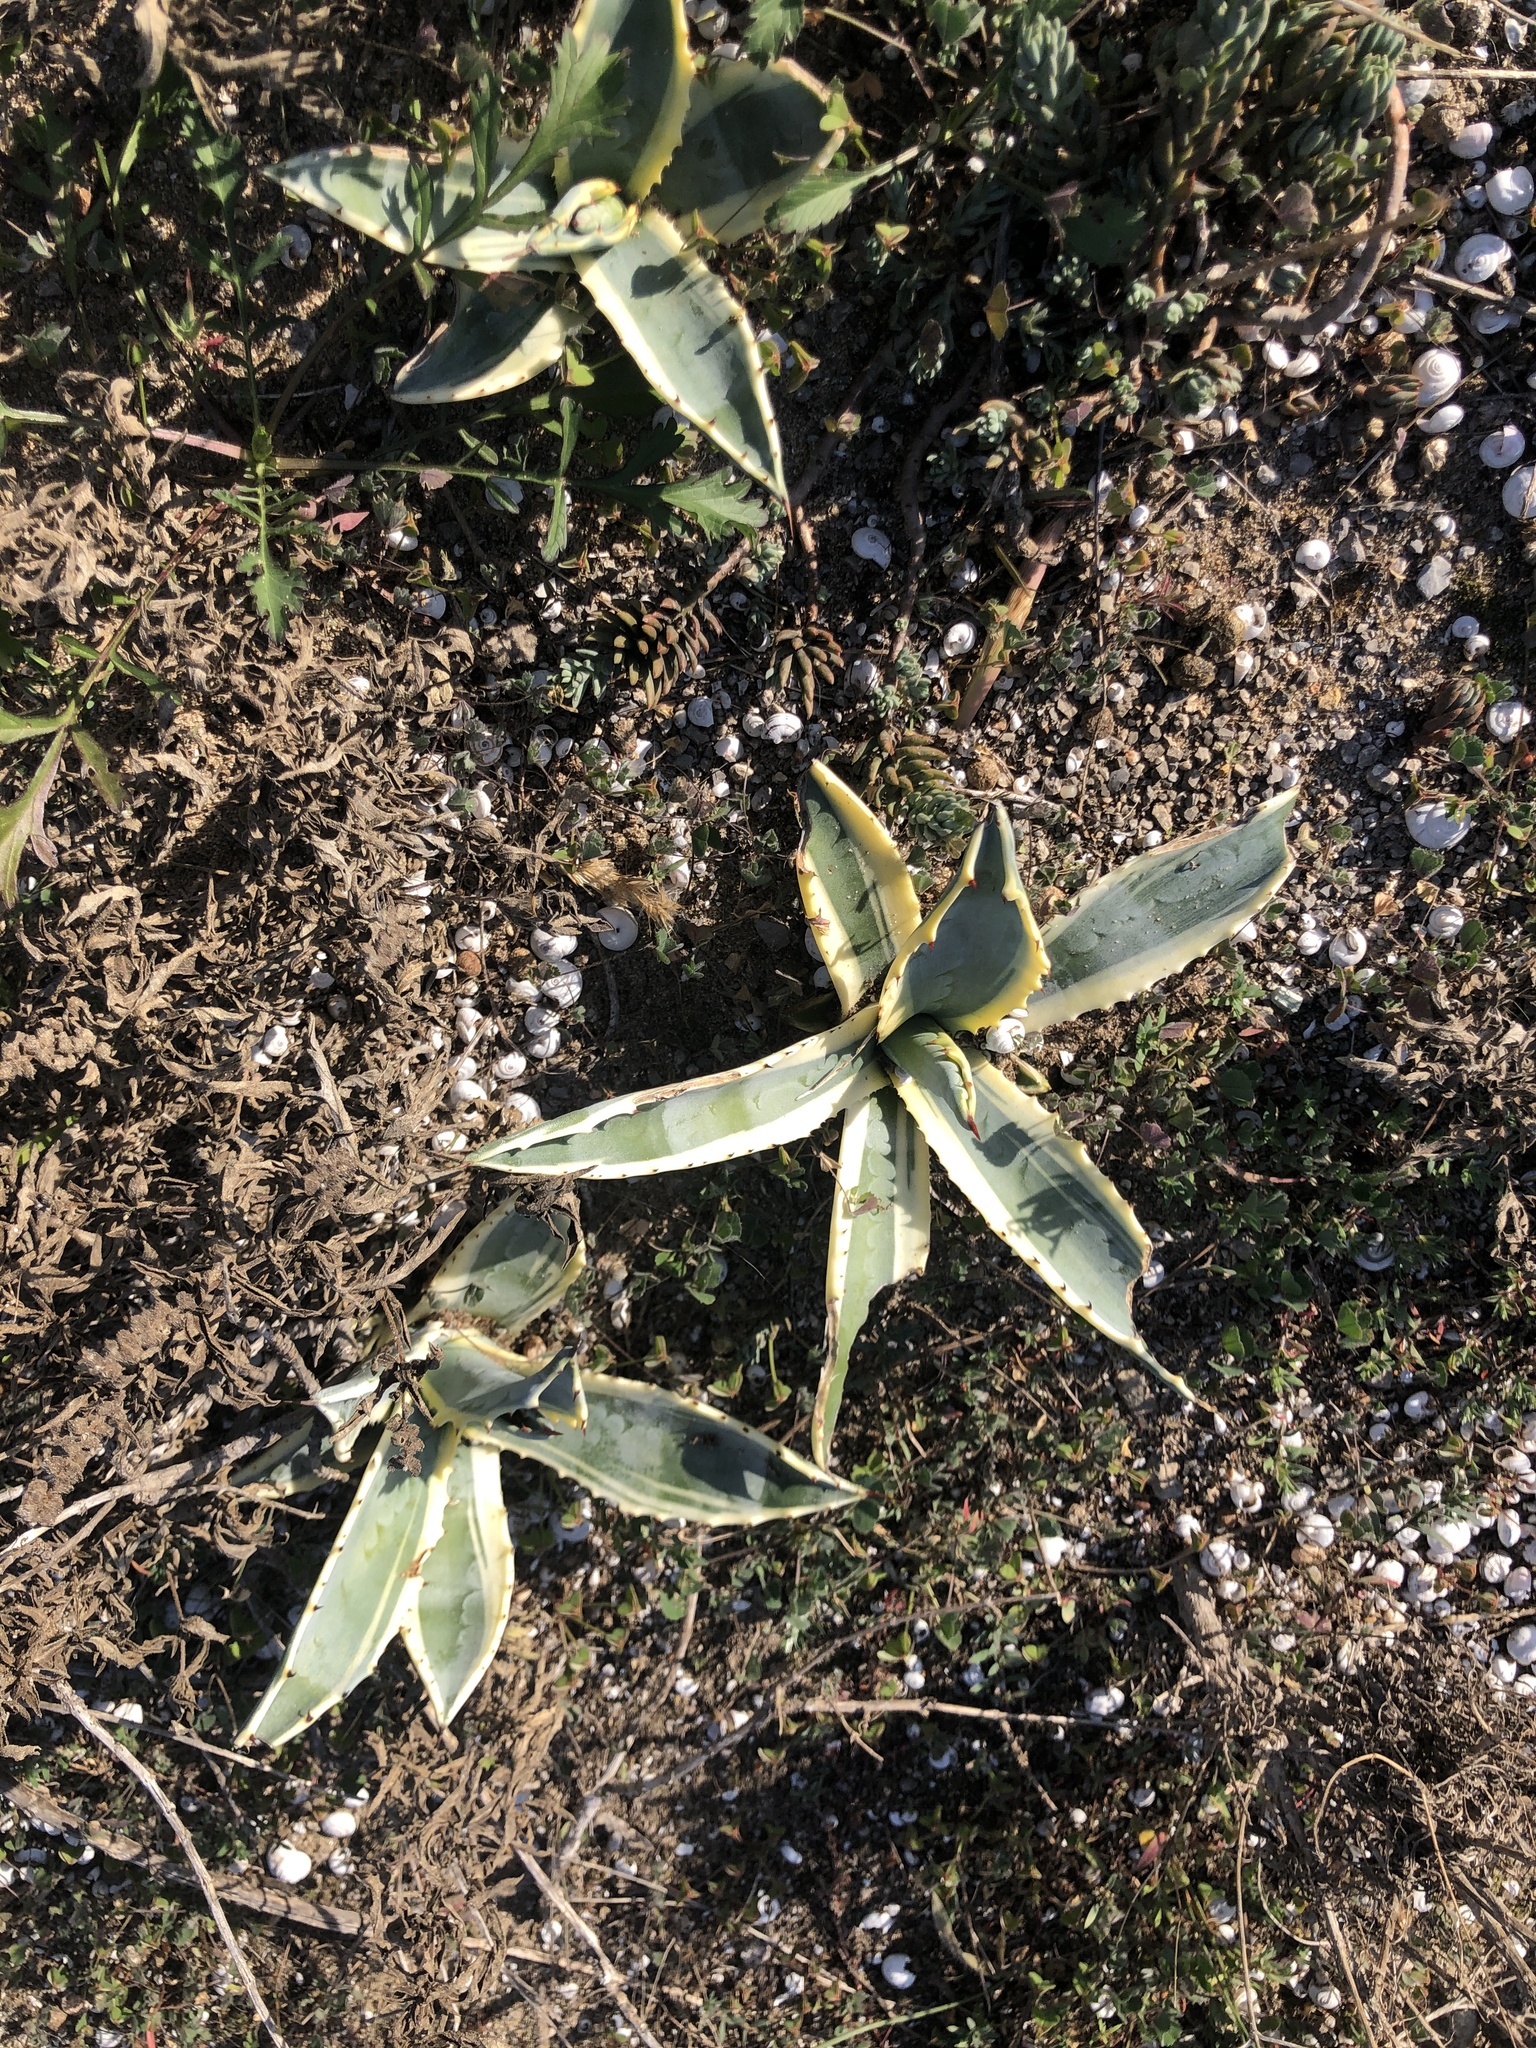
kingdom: Plantae
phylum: Tracheophyta
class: Liliopsida
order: Asparagales
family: Asparagaceae
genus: Agave
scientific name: Agave americana
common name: Centuryplant
